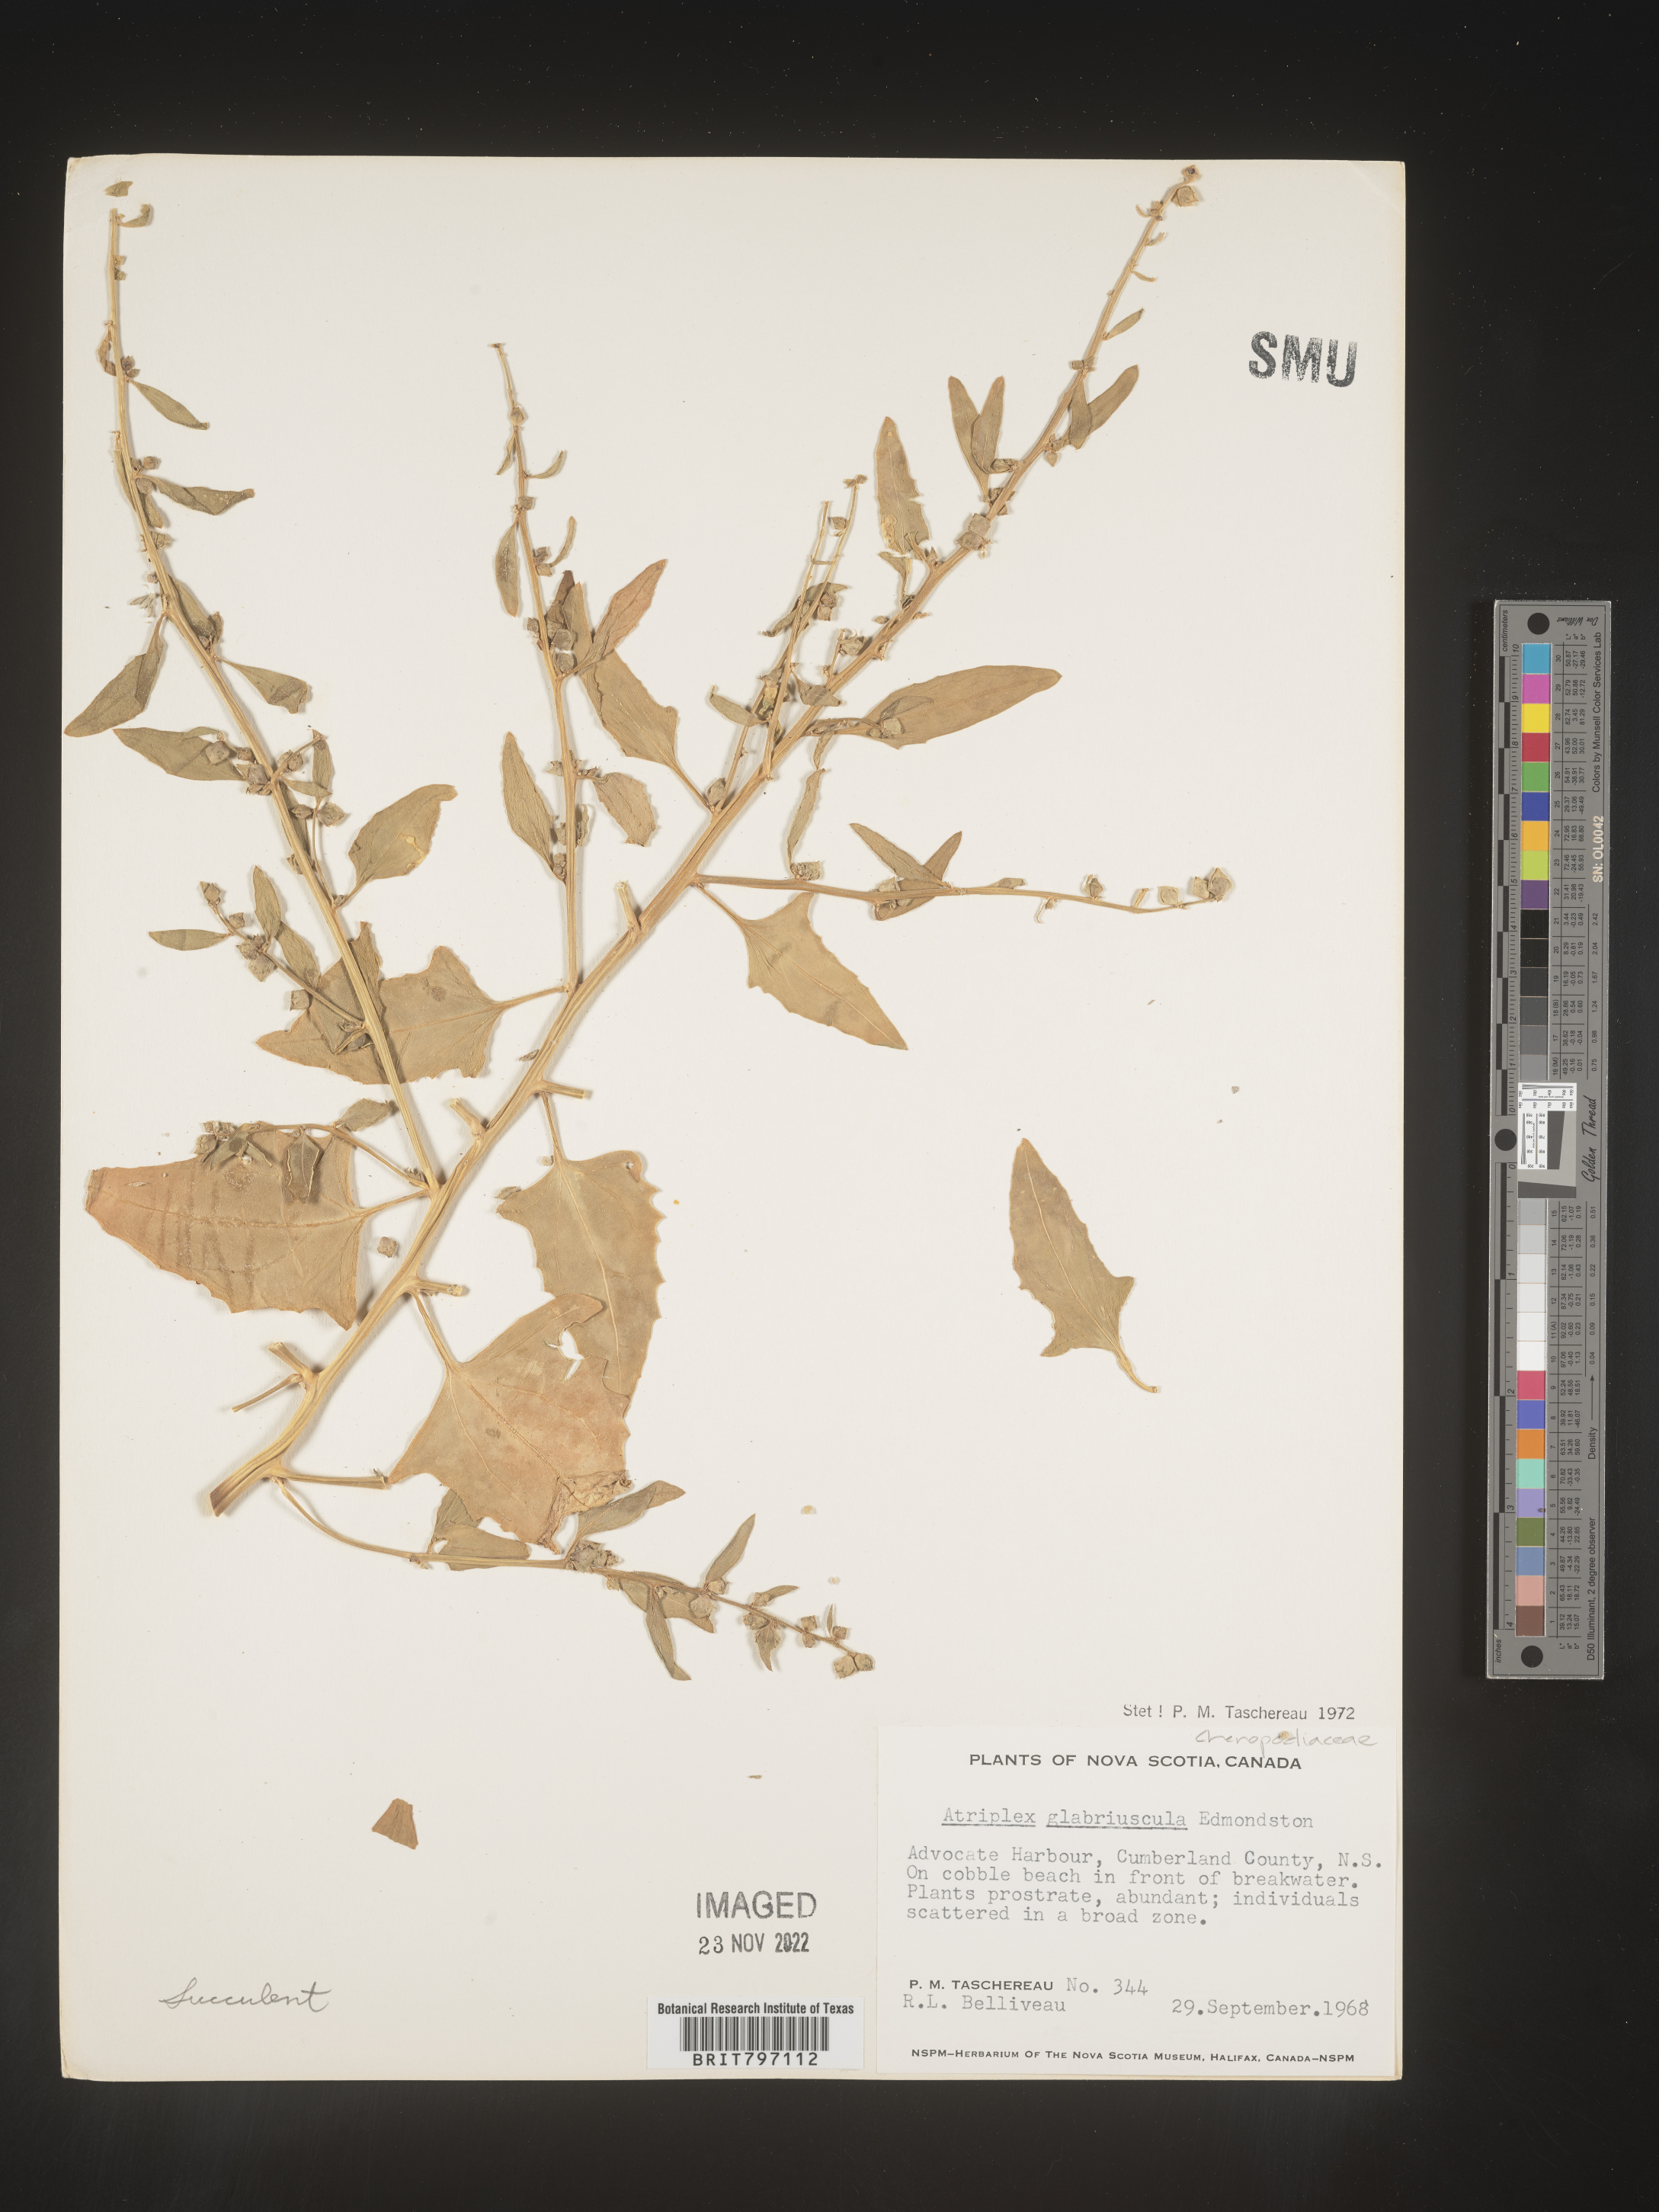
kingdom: Plantae
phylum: Tracheophyta
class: Magnoliopsida
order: Caryophyllales
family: Amaranthaceae
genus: Atriplex
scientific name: Atriplex
